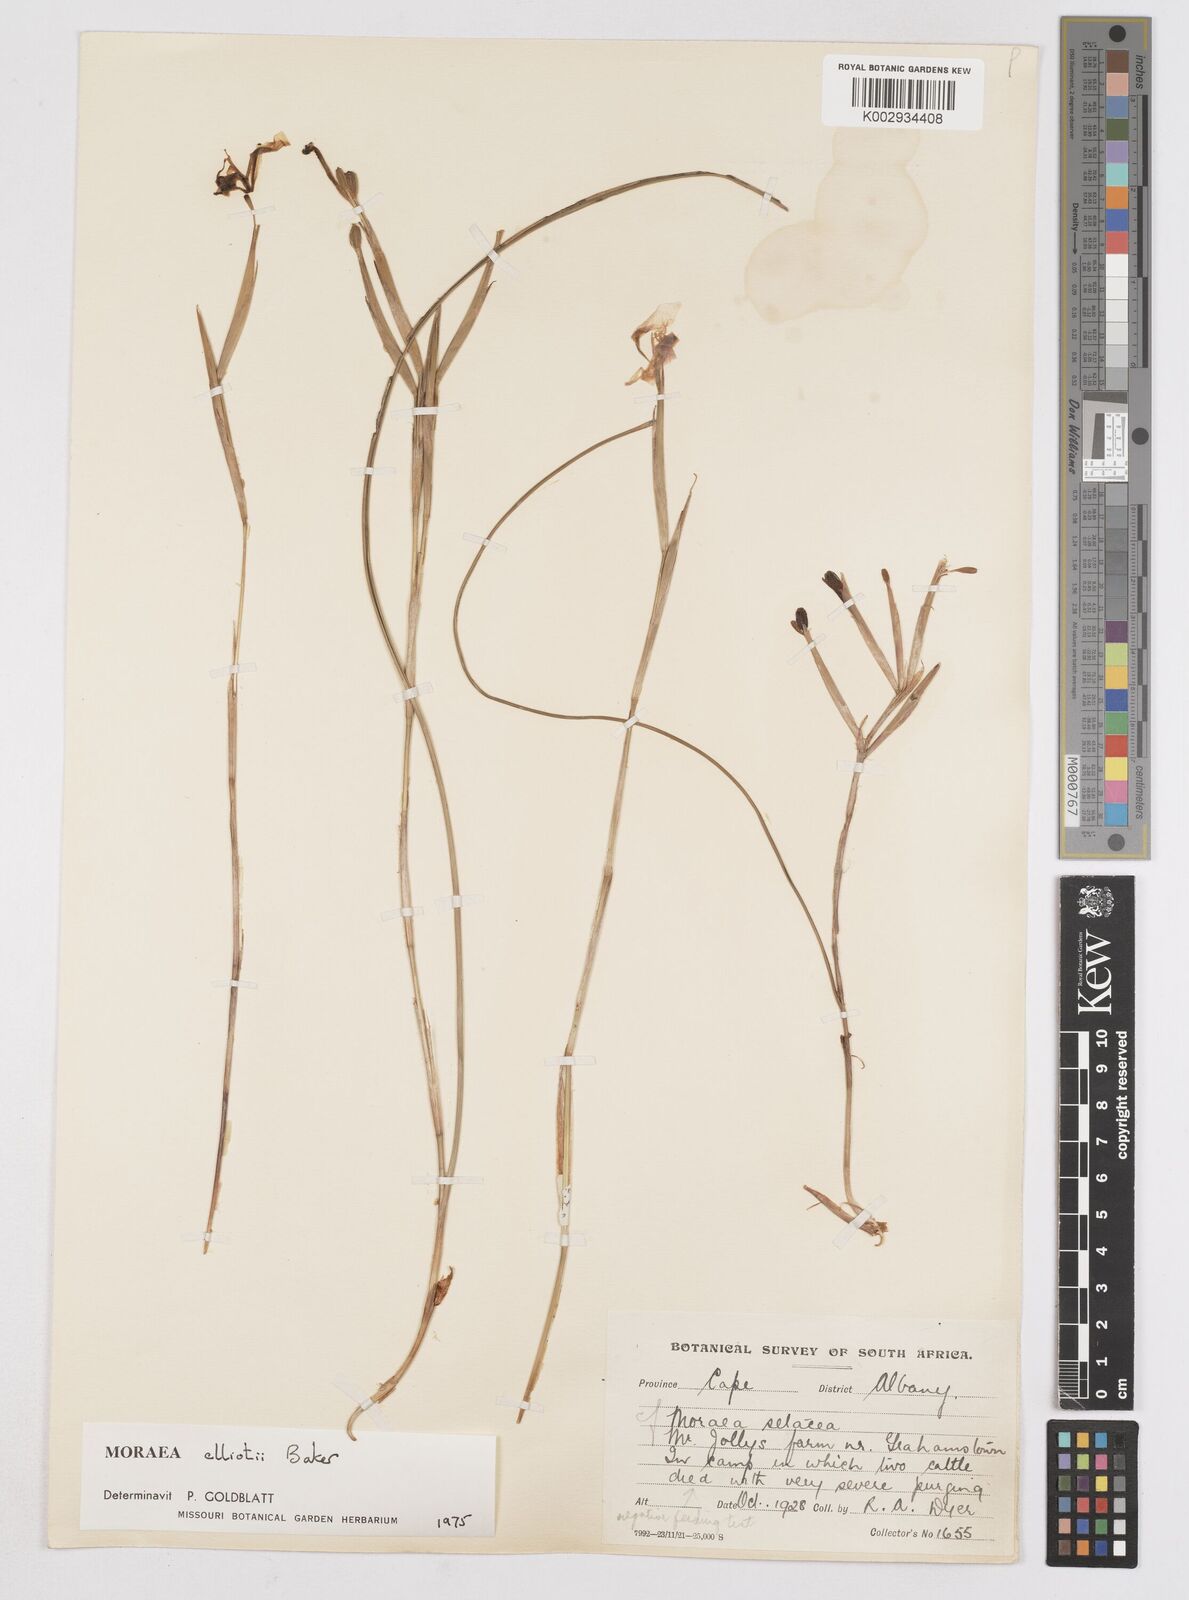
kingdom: Plantae
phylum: Tracheophyta
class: Liliopsida
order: Asparagales
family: Iridaceae
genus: Moraea
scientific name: Moraea elliotii
